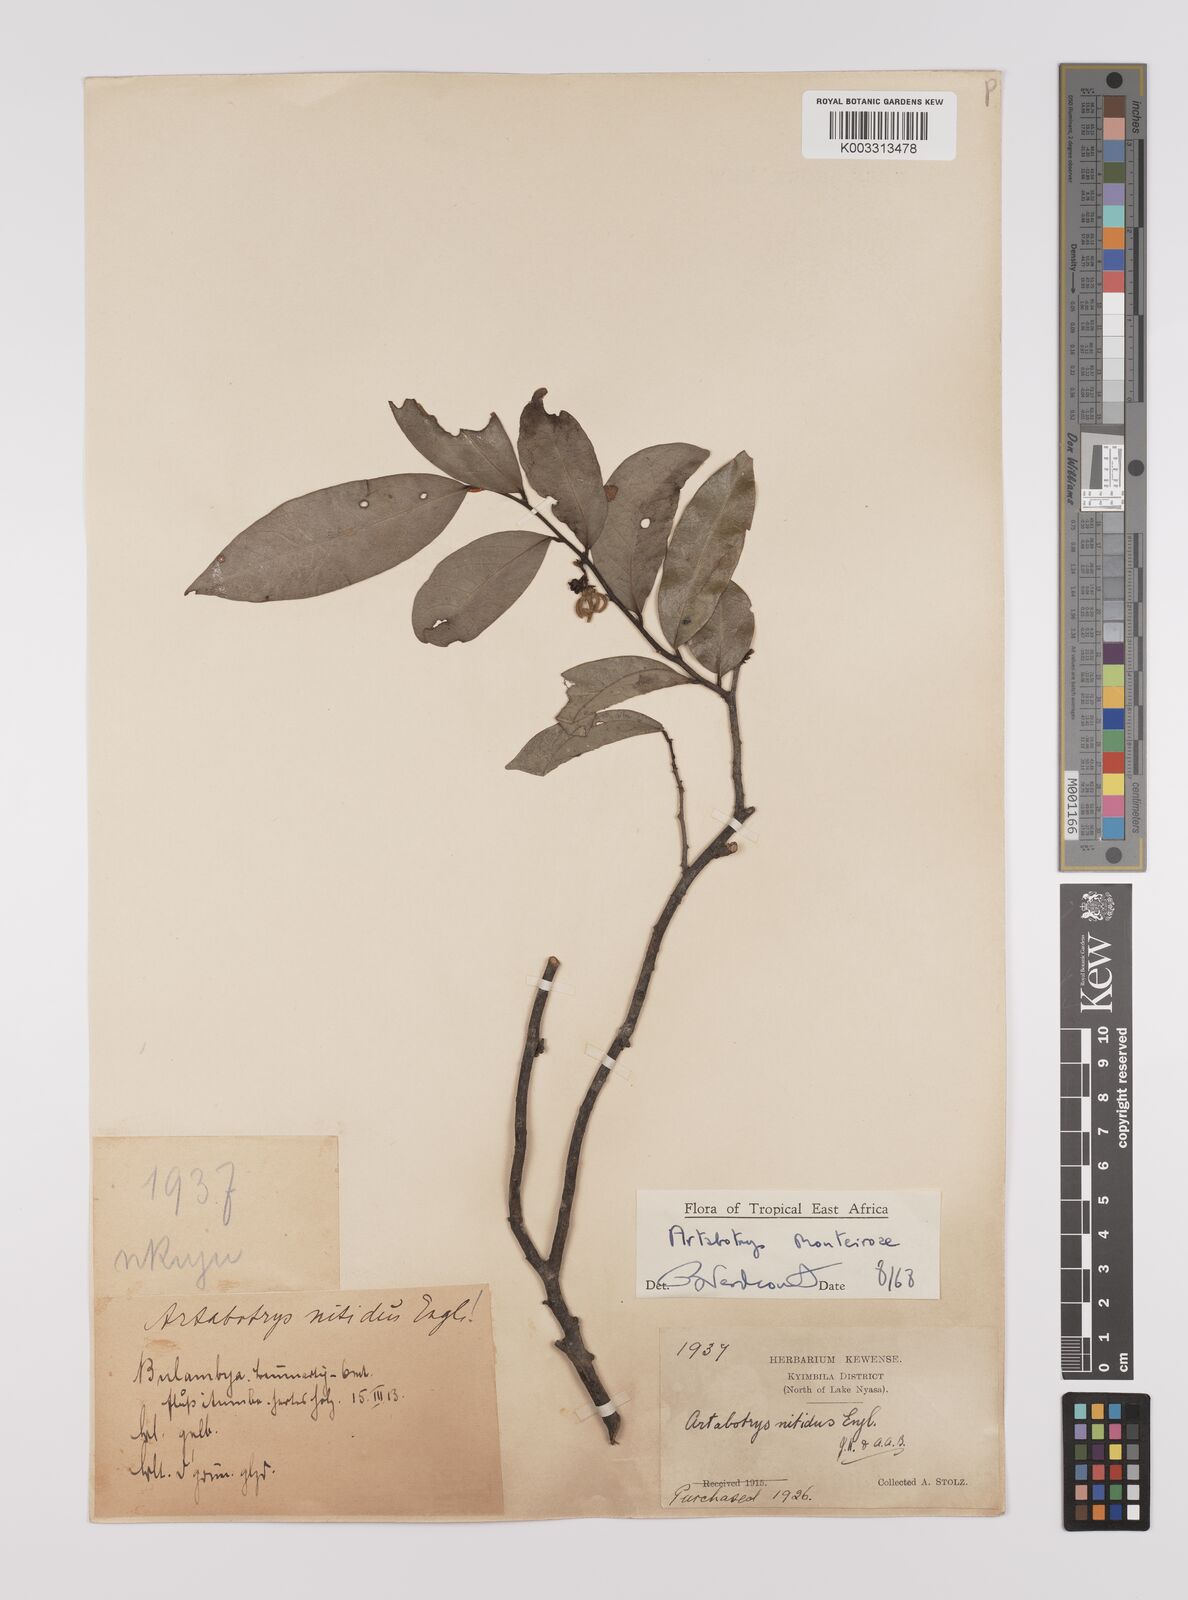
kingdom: Plantae
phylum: Tracheophyta
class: Magnoliopsida
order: Magnoliales
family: Annonaceae
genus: Artabotrys
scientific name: Artabotrys monteiroae
